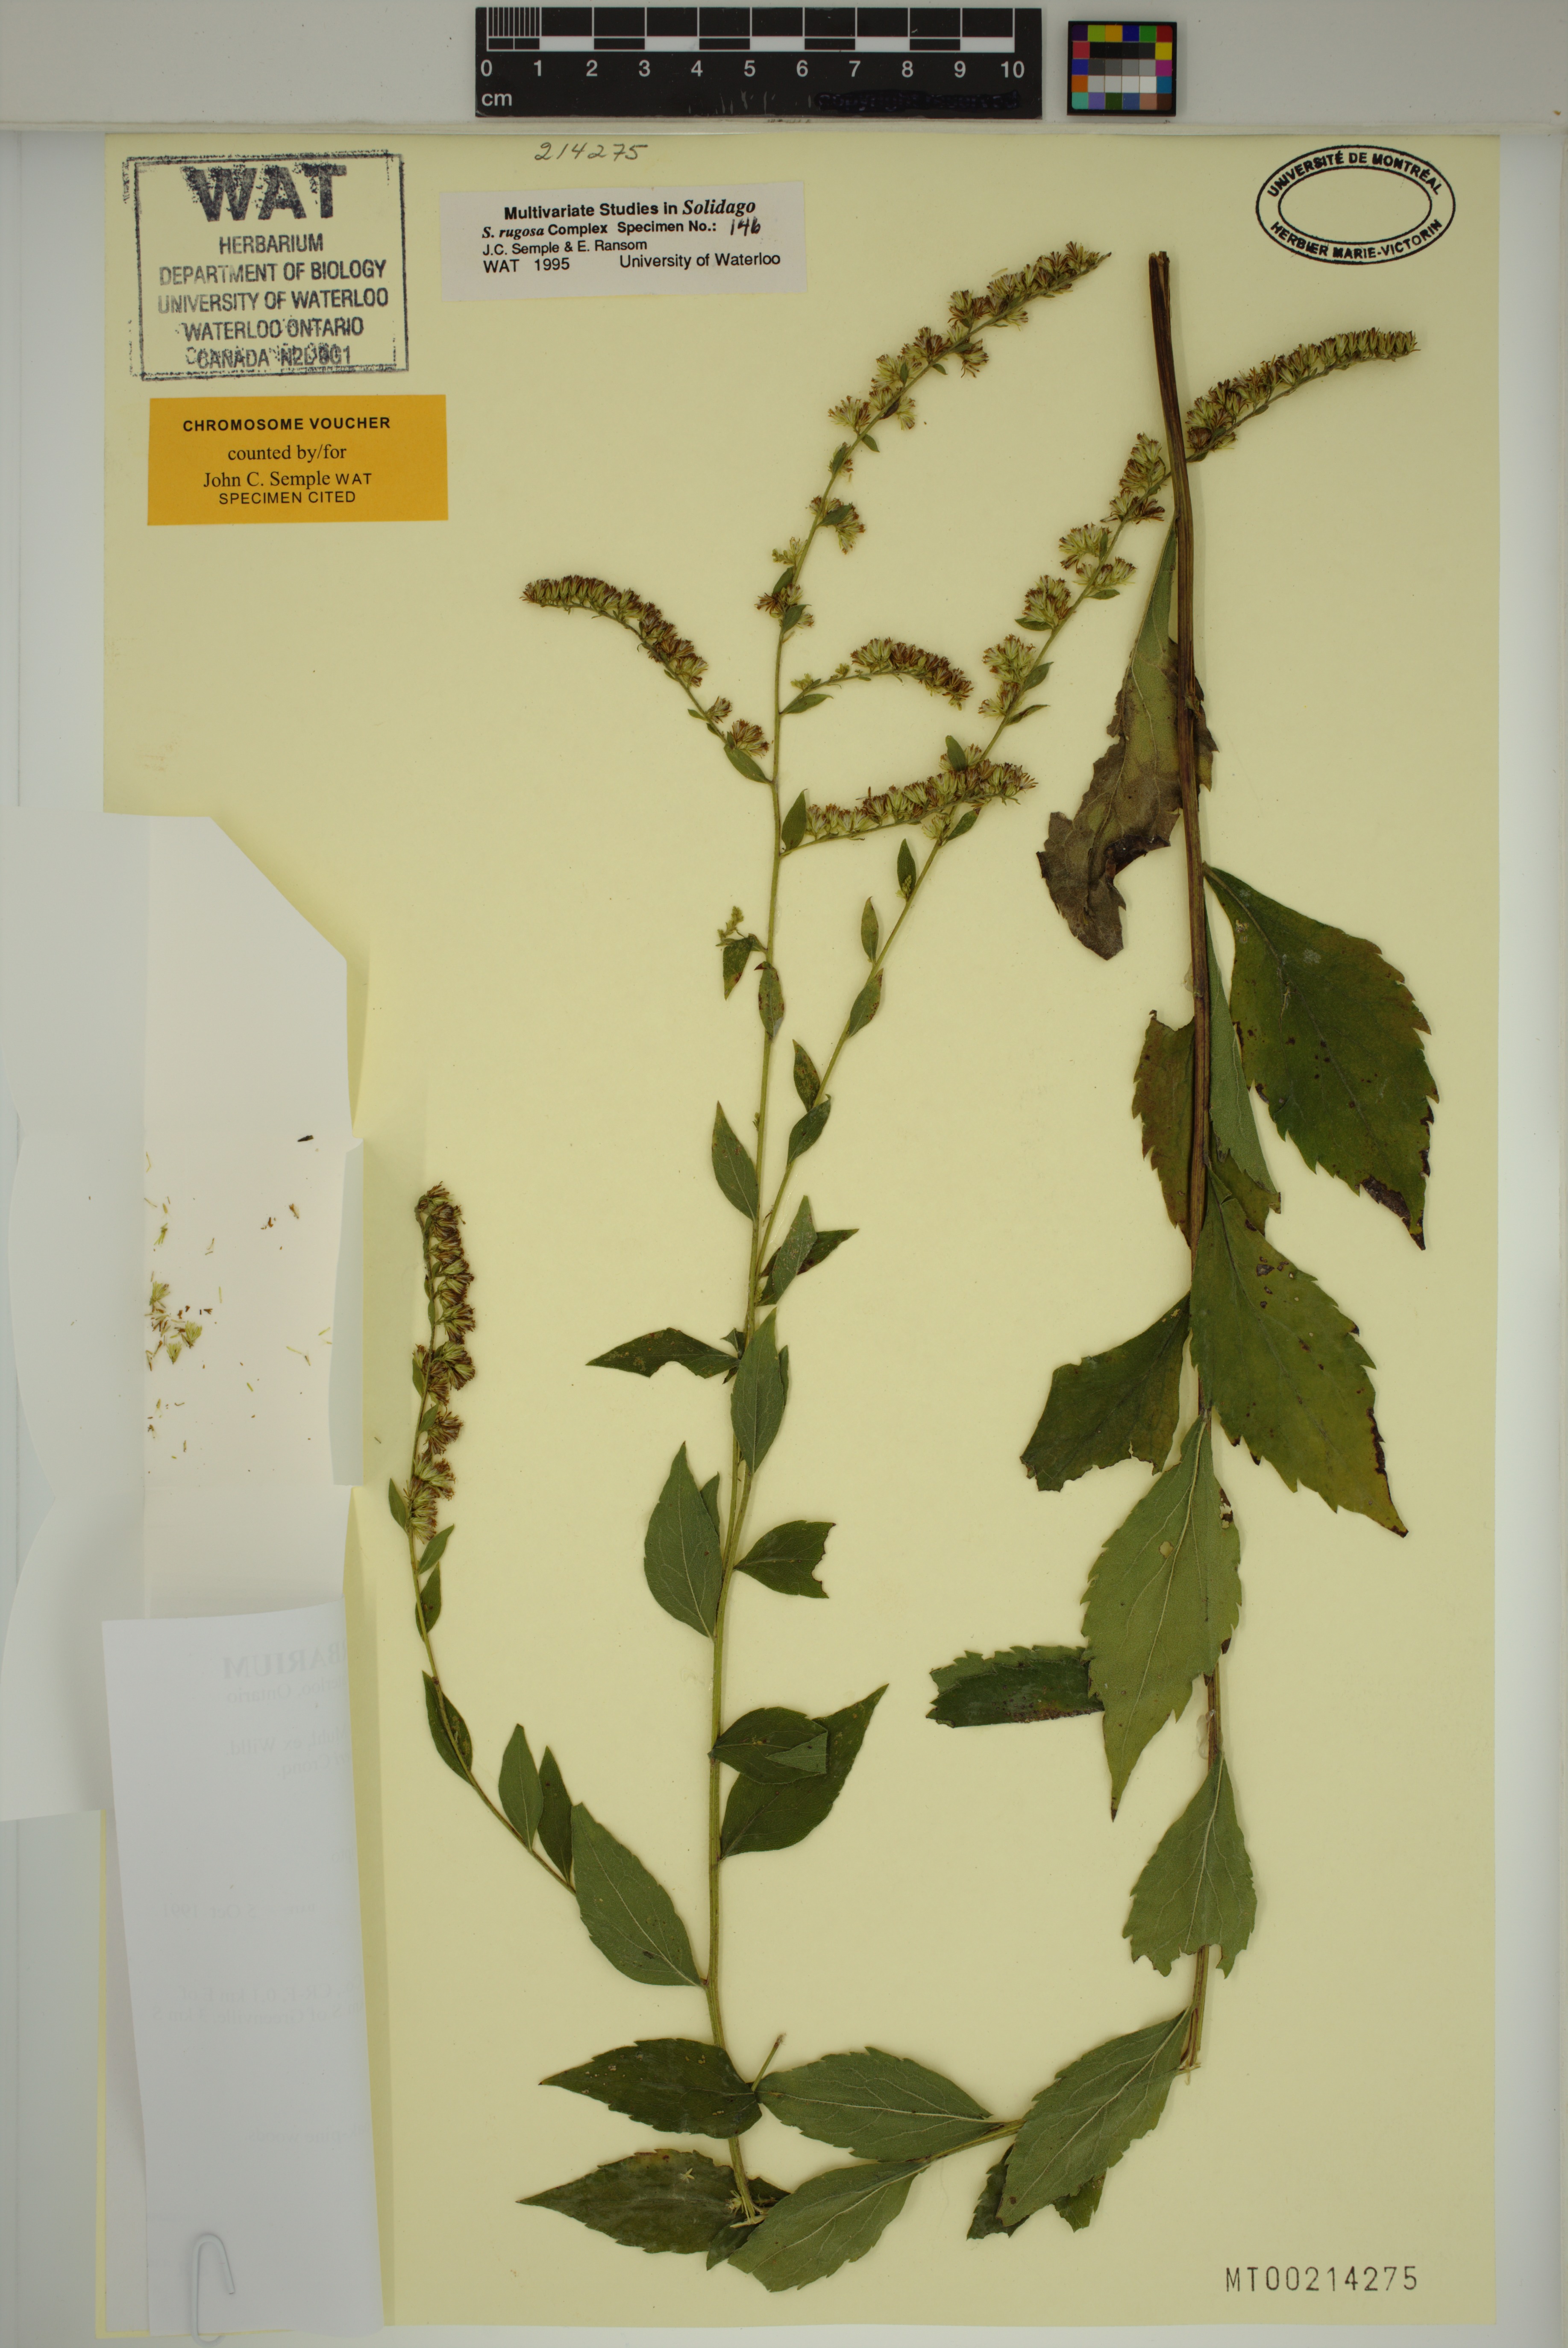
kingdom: Plantae
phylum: Tracheophyta
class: Magnoliopsida
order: Asterales
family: Asteraceae
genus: Solidago
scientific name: Solidago ulmifolia
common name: Elm-leaf goldenrod
